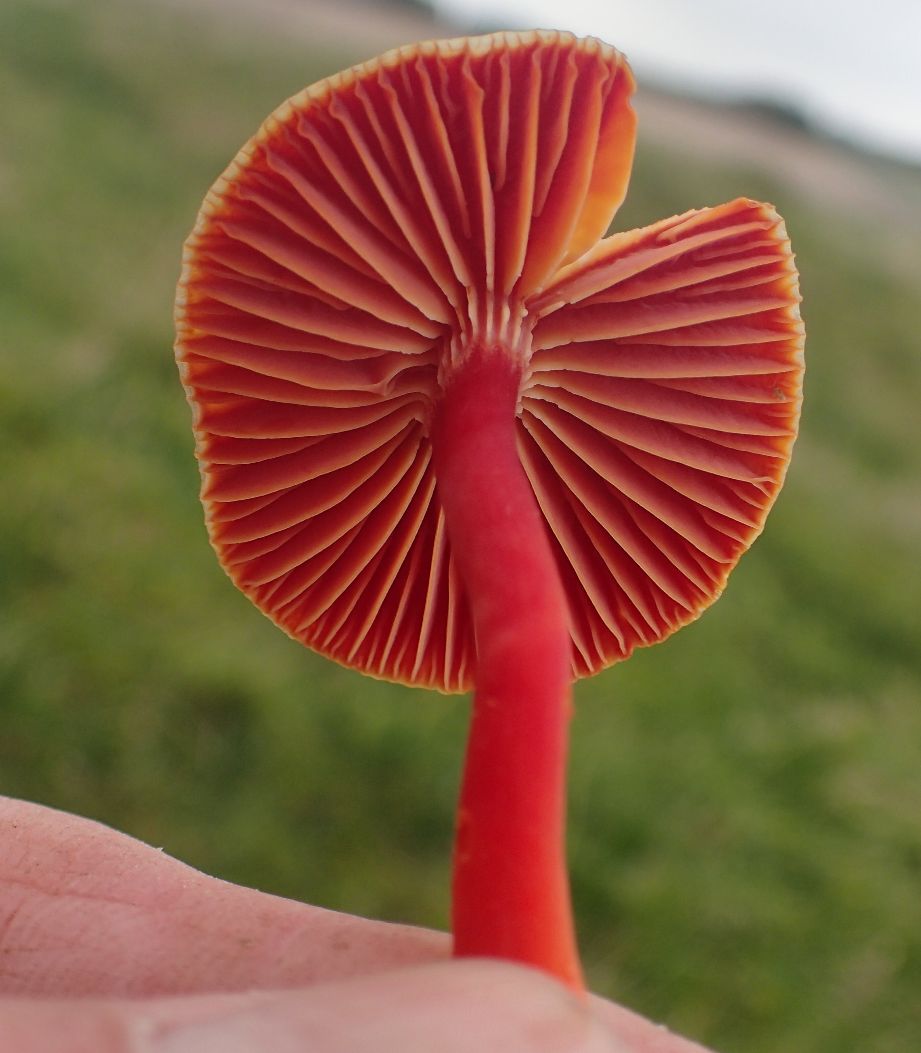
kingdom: Fungi
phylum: Basidiomycota
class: Agaricomycetes
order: Agaricales
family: Hygrophoraceae
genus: Hygrocybe
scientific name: Hygrocybe coccinea
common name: cinnober-vokshat
